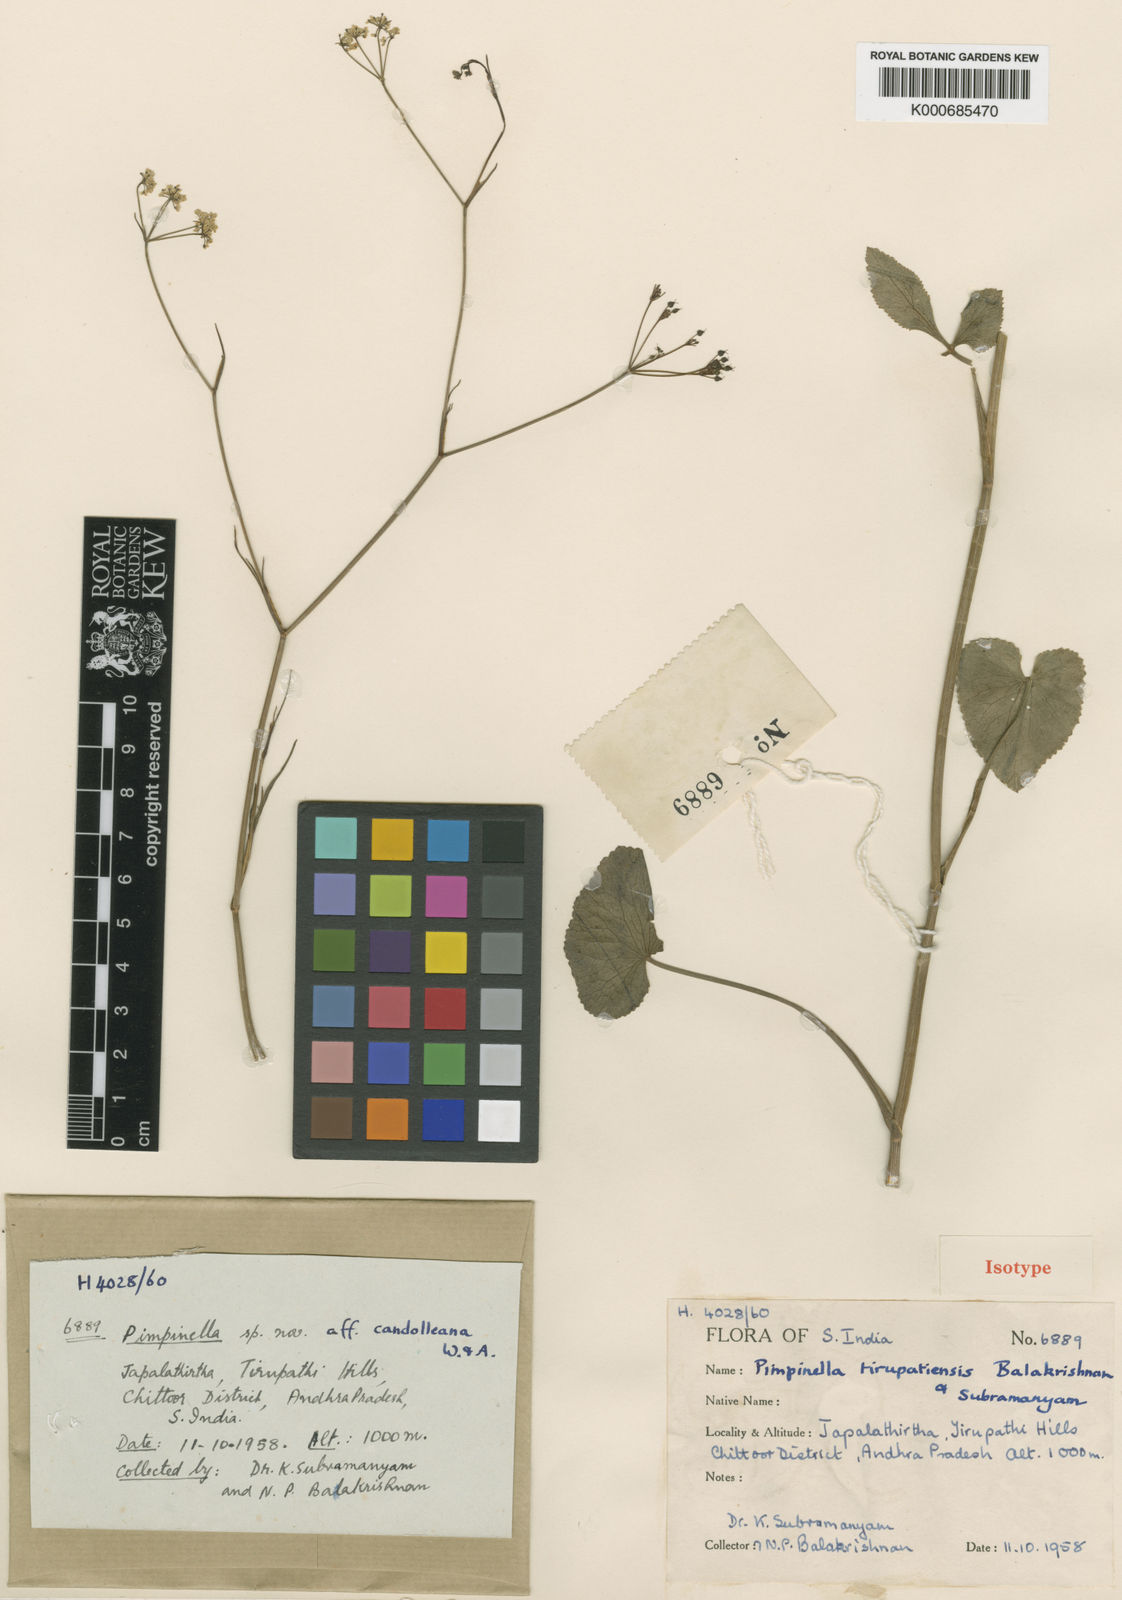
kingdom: Plantae
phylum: Tracheophyta
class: Magnoliopsida
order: Apiales
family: Apiaceae
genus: Pimpinella
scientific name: Pimpinella tirupatiensis
